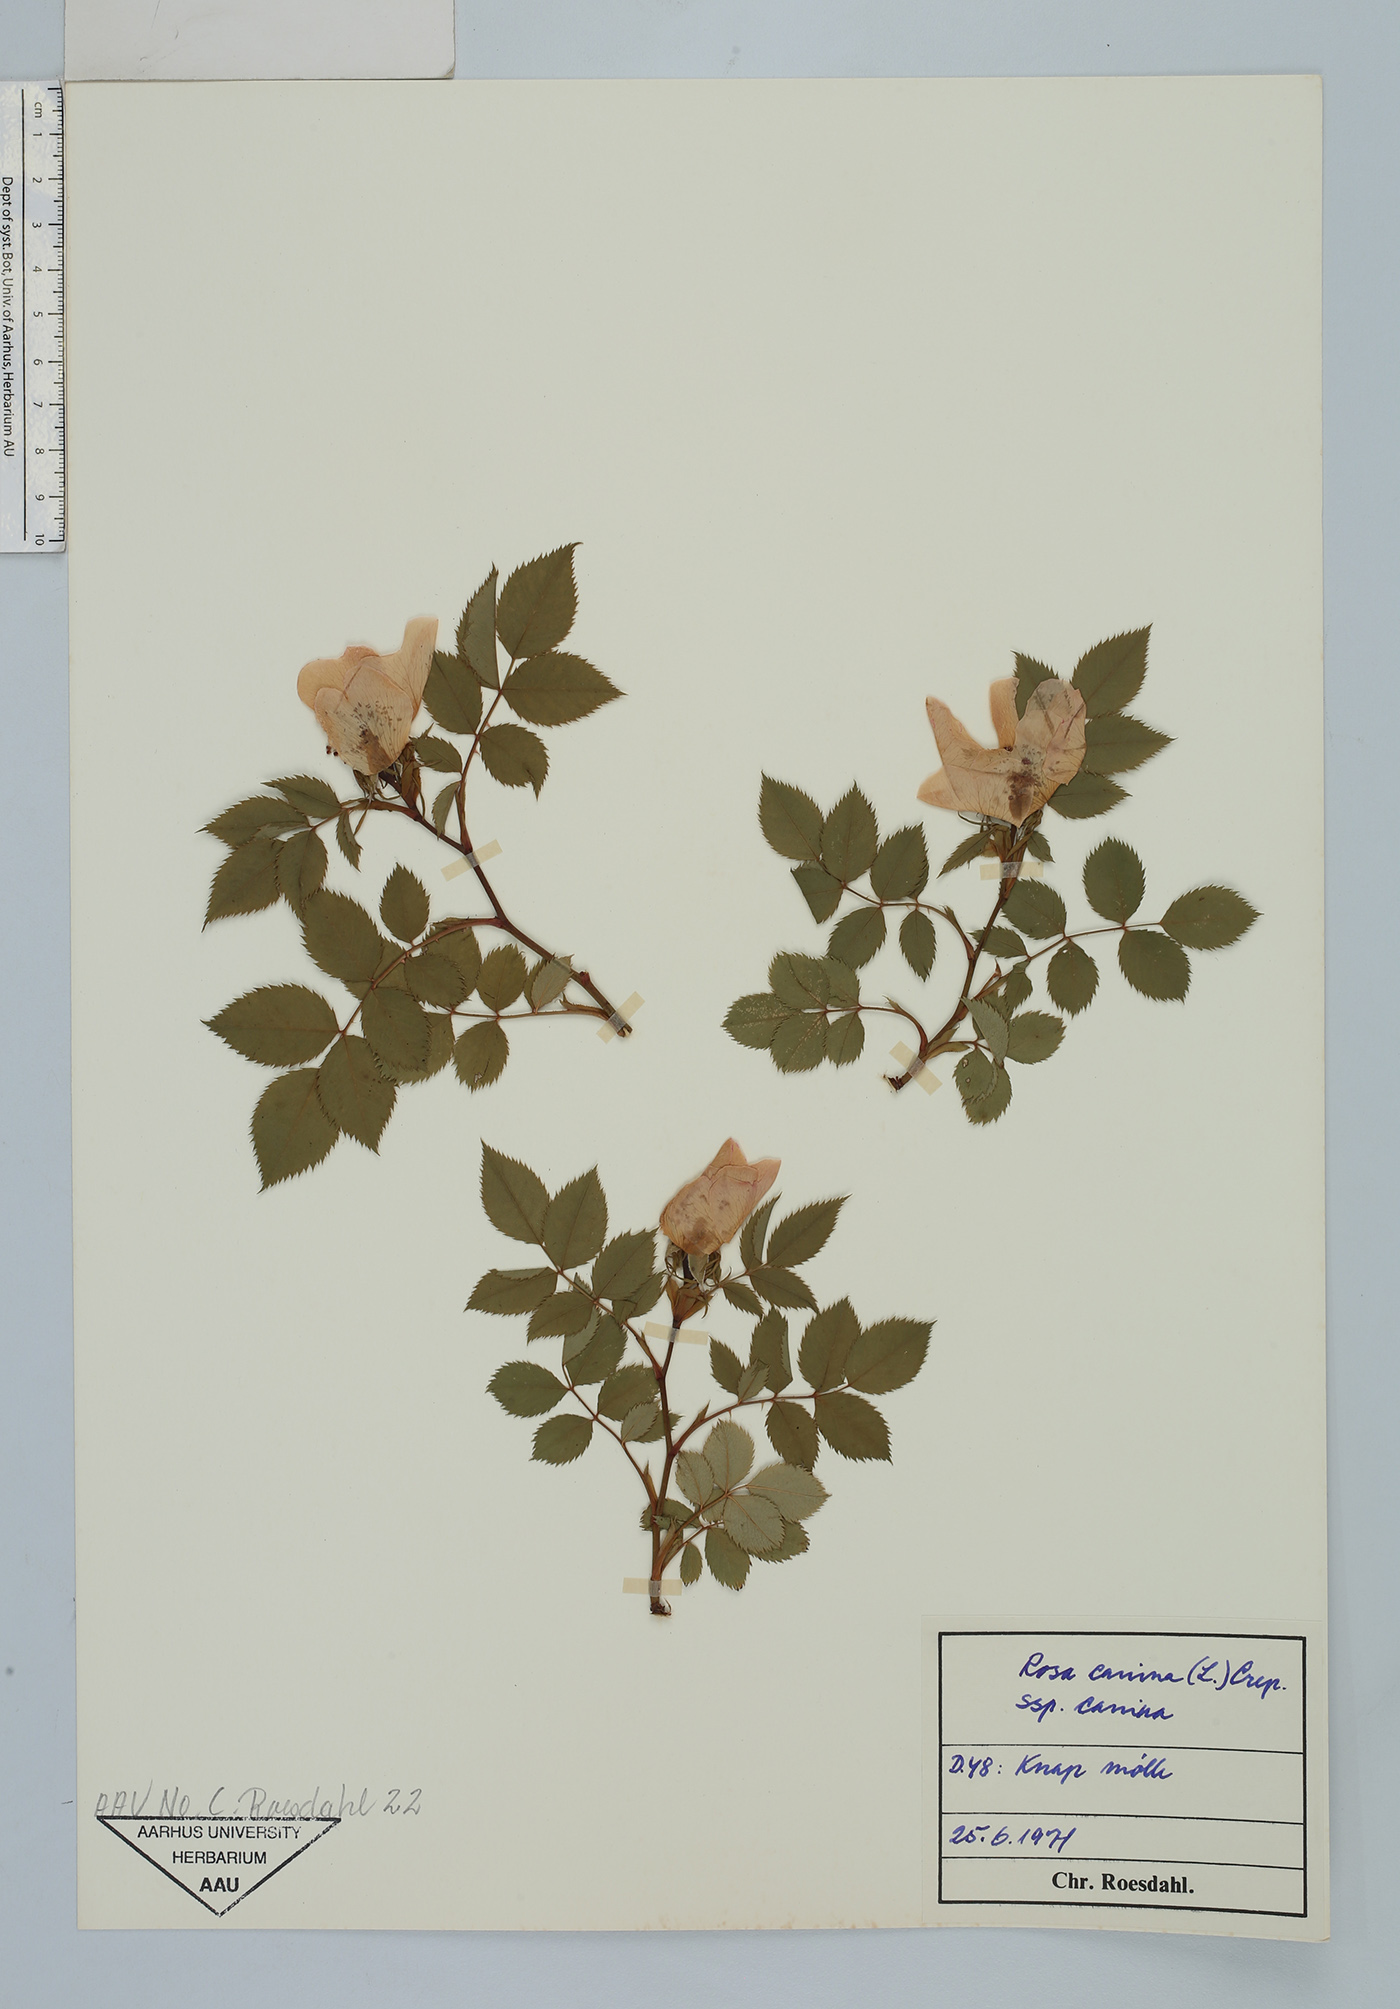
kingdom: Plantae
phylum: Tracheophyta
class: Magnoliopsida
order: Rosales
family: Rosaceae
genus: Rosa
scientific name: Rosa canina
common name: Dog rose
